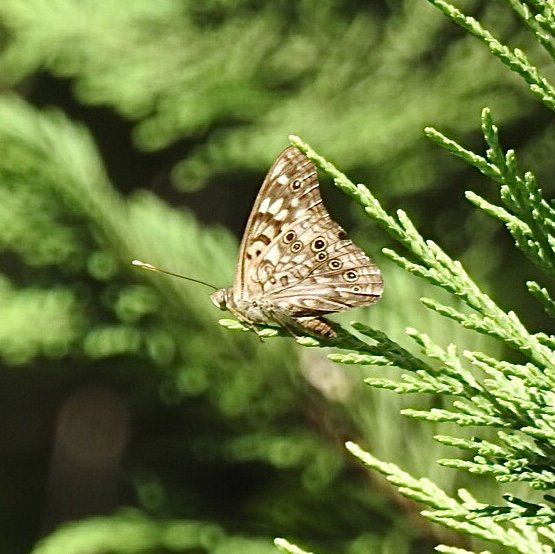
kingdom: Animalia
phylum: Arthropoda
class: Insecta
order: Lepidoptera
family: Nymphalidae
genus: Asterocampa
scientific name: Asterocampa celtis
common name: Hackberry Emperor
